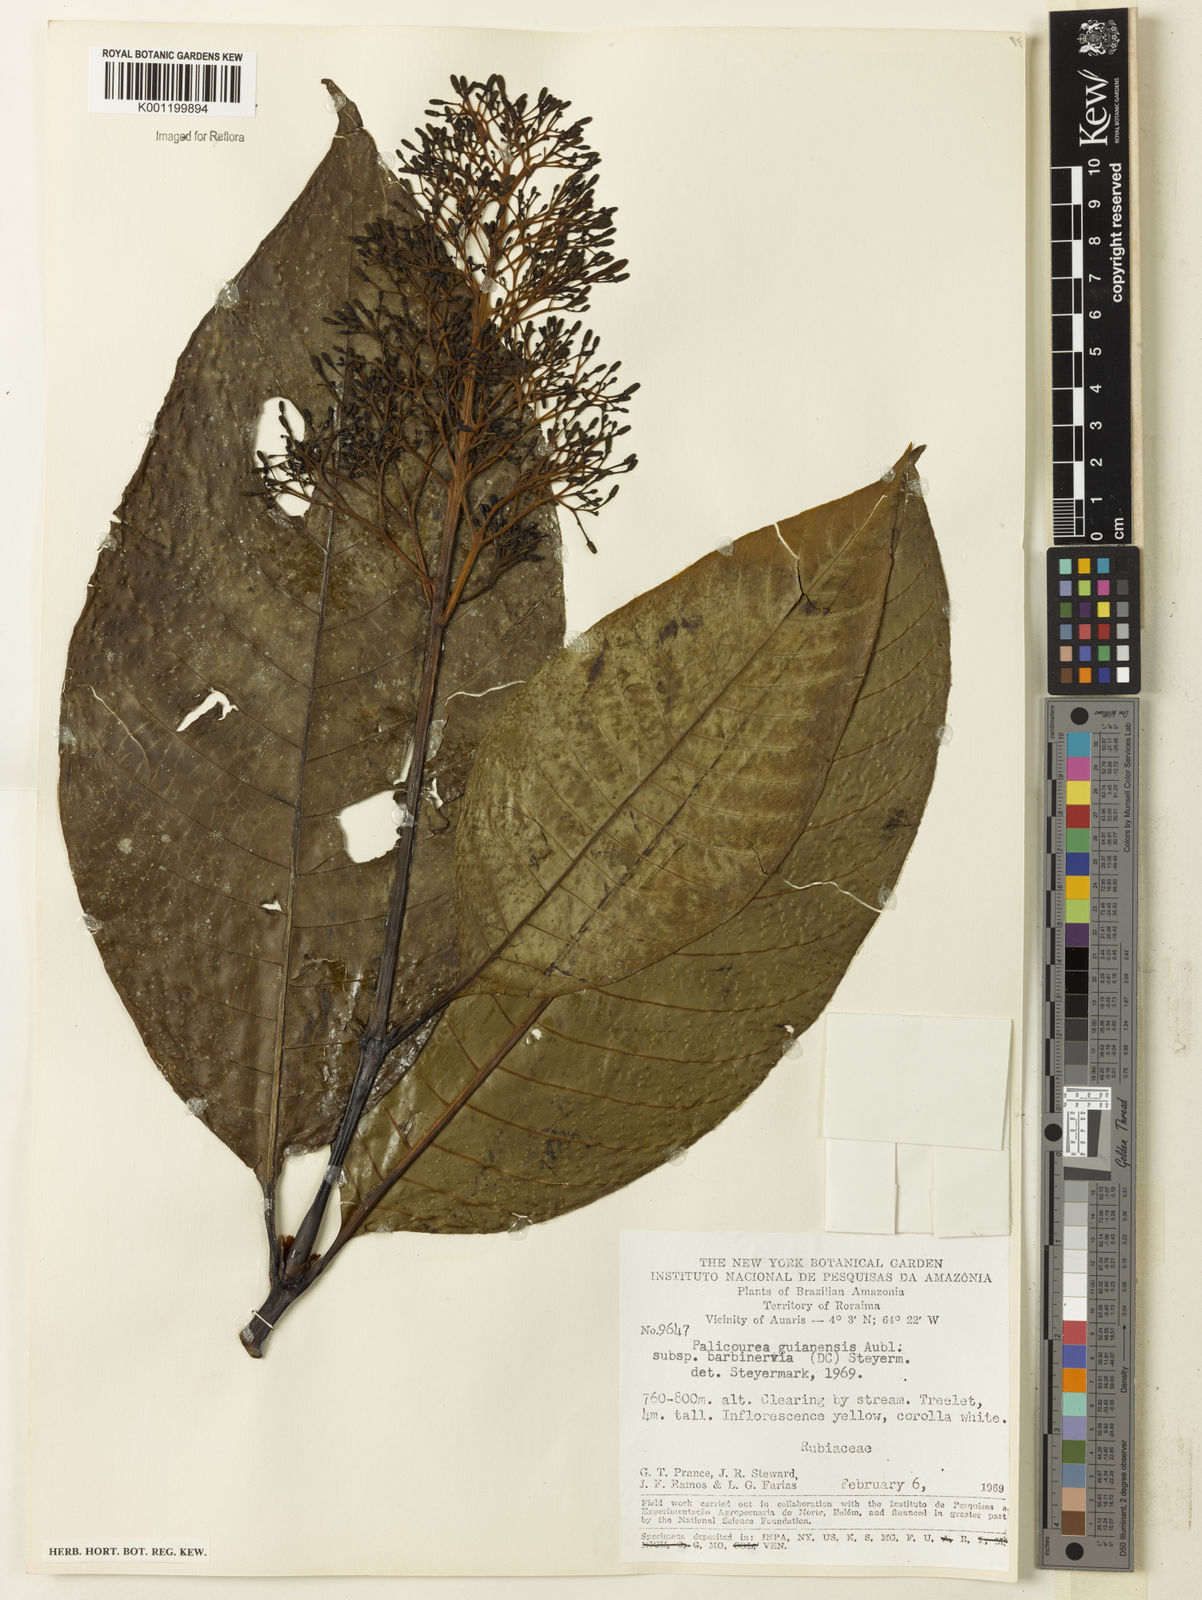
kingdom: Plantae
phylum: Tracheophyta
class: Magnoliopsida
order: Gentianales
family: Rubiaceae
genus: Palicourea
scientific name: Palicourea guianensis
